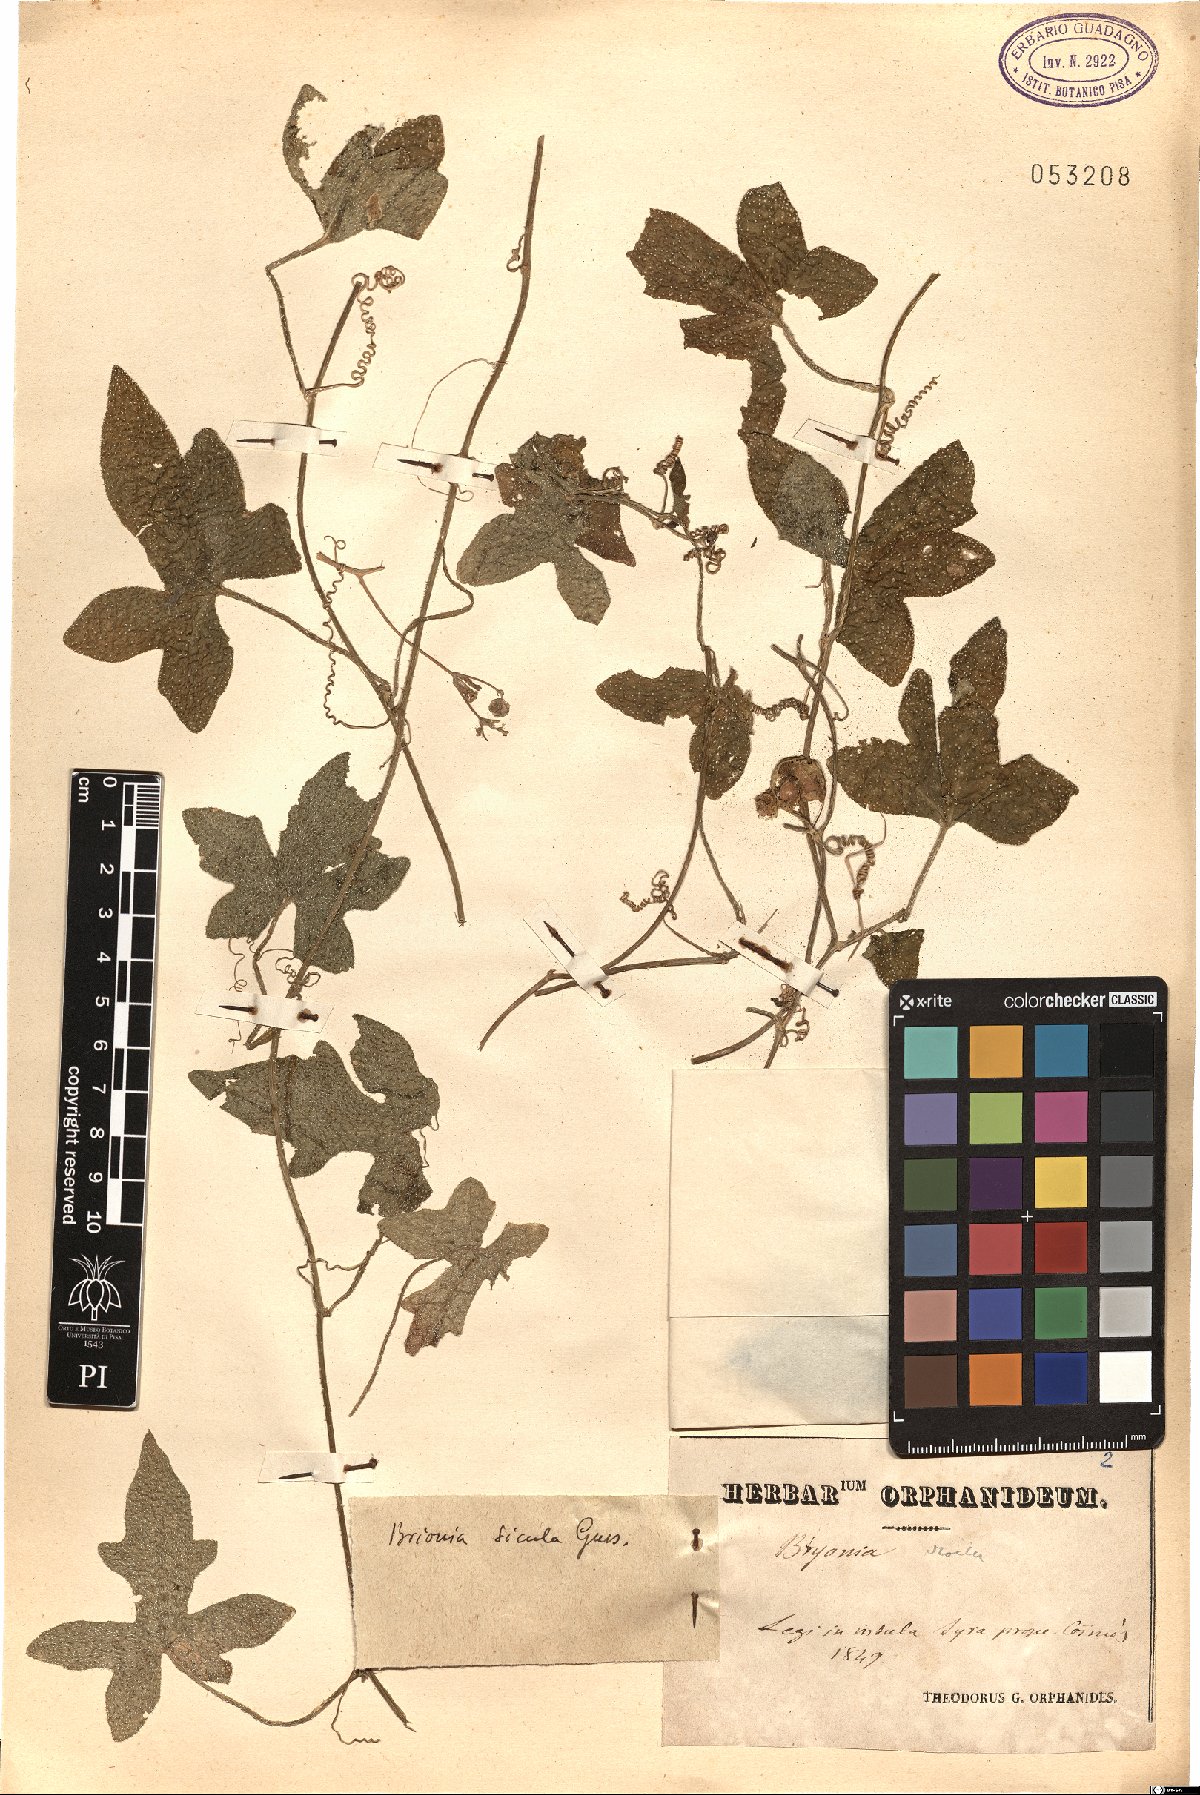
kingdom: Plantae
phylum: Tracheophyta
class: Magnoliopsida
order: Cucurbitales
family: Cucurbitaceae
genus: Bryonia
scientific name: Bryonia dioica
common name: White bryony
